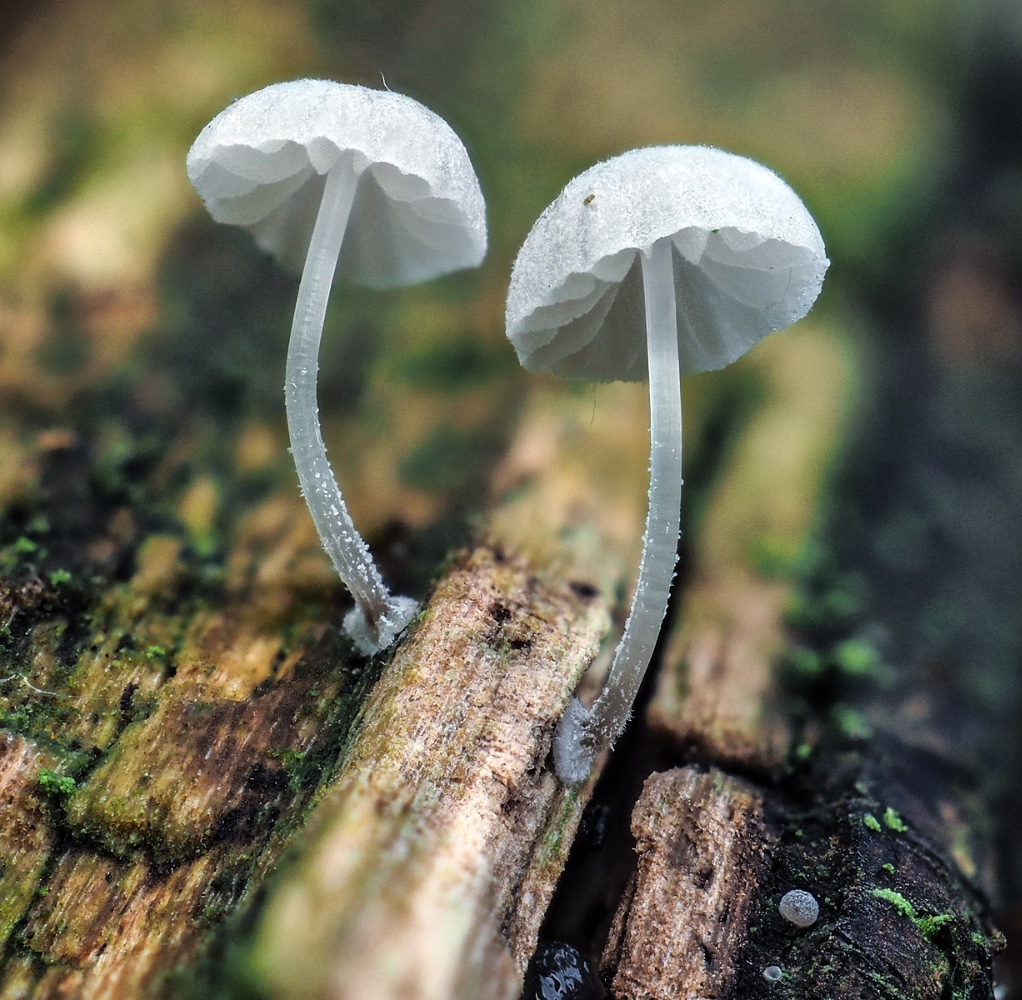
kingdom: Fungi
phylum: Basidiomycota
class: Agaricomycetes
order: Agaricales
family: Mycenaceae
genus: Mycena
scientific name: Mycena clavularis
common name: dunskivet huesvamp
